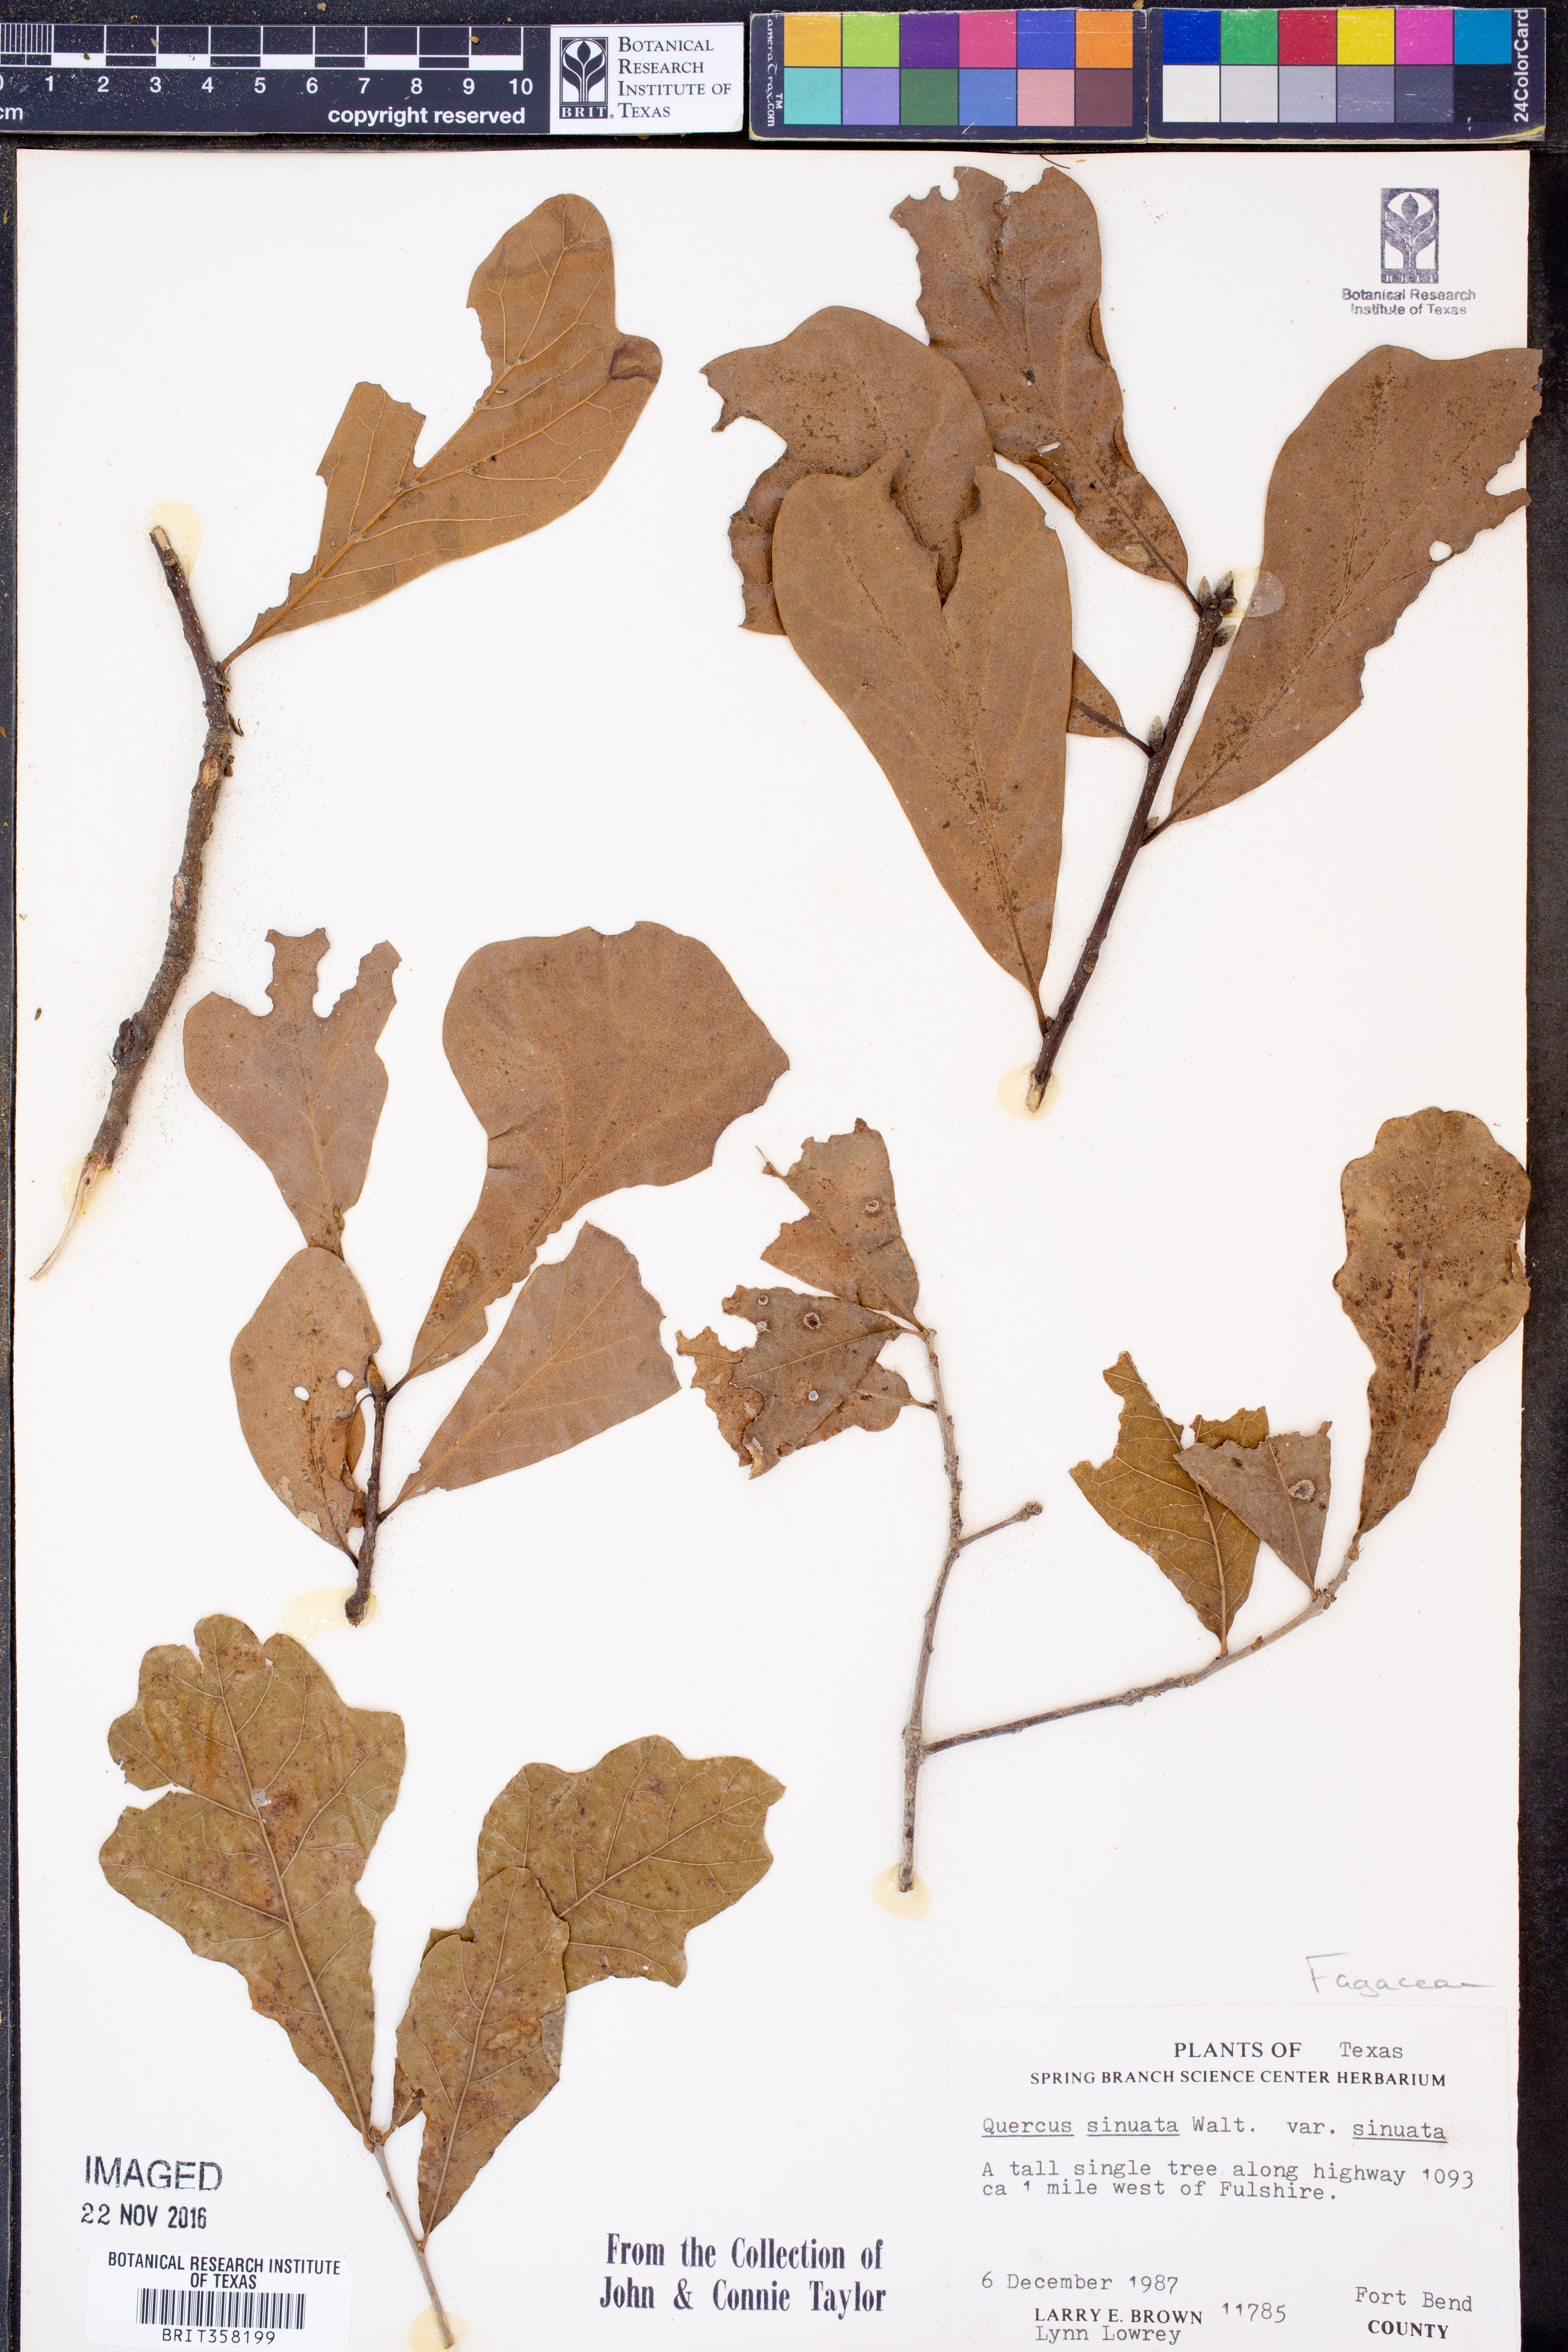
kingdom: Plantae
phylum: Tracheophyta
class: Magnoliopsida
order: Fagales
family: Fagaceae
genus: Quercus
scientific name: Quercus sinuata
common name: Durand oak
